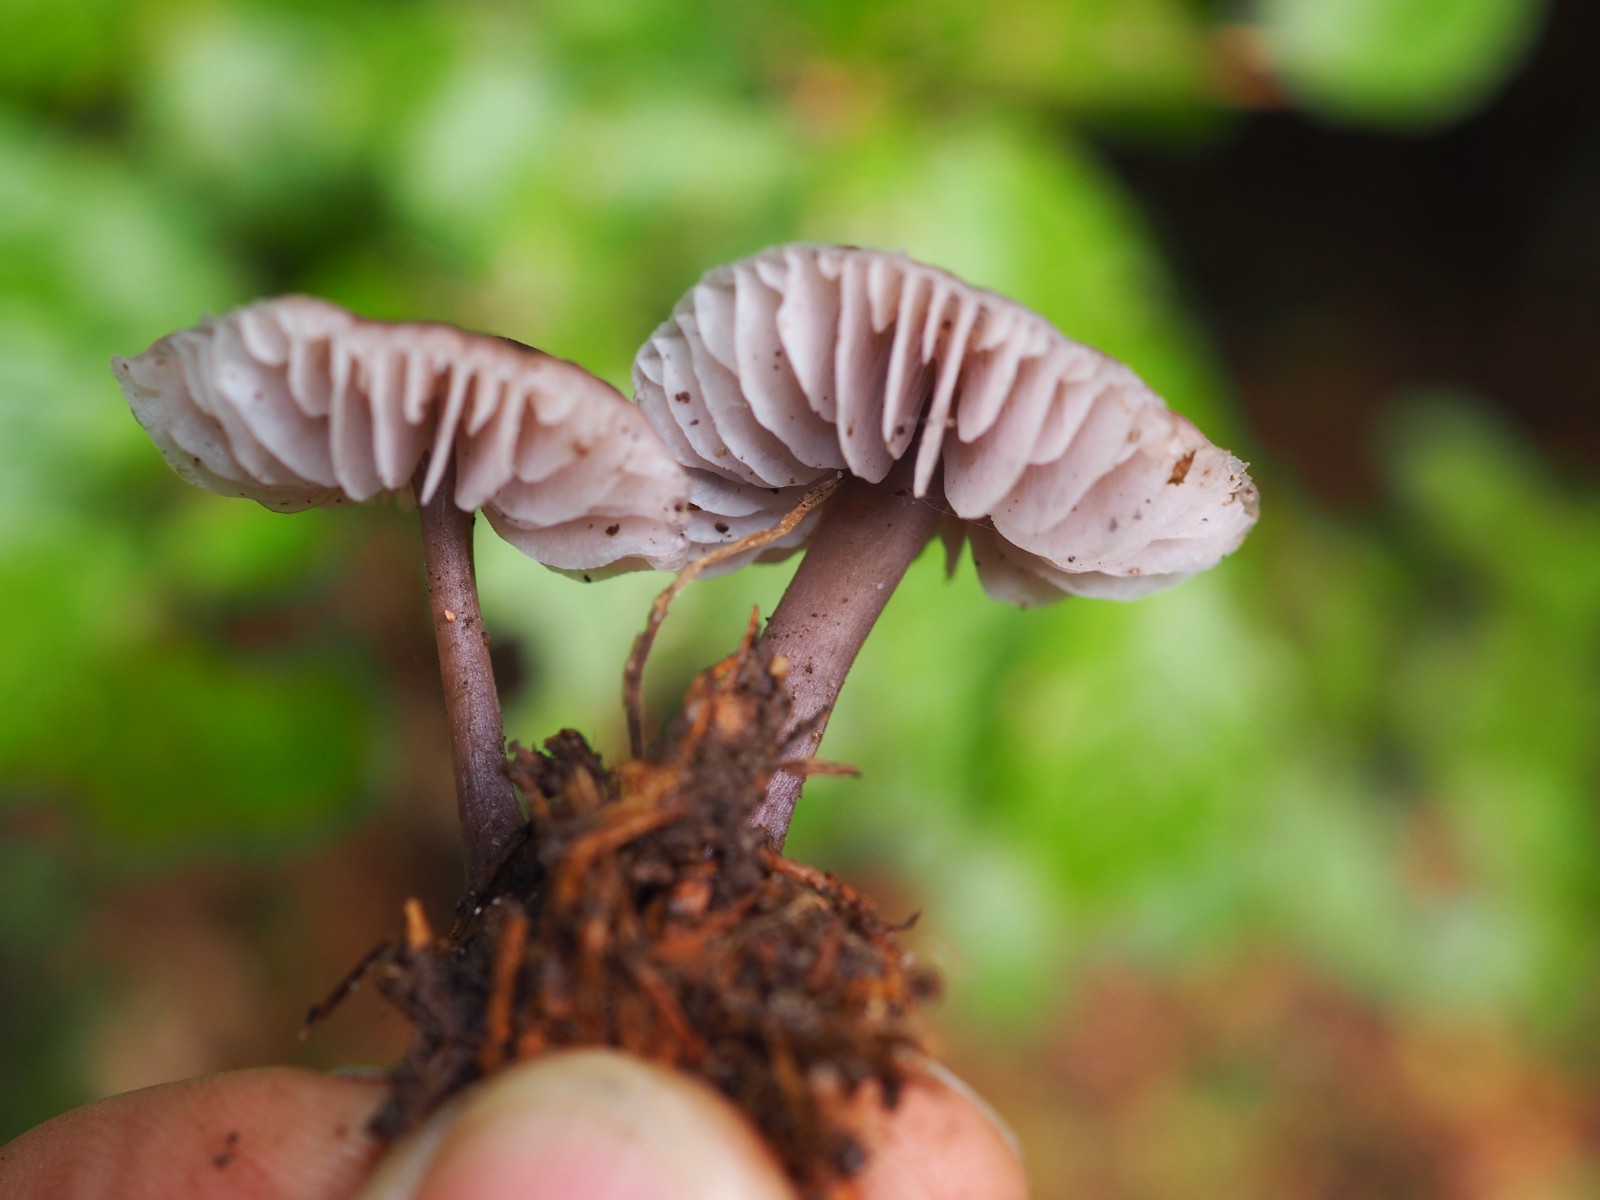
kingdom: Fungi
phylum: Basidiomycota
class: Agaricomycetes
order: Agaricales
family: Mycenaceae
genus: Mycena
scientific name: Mycena
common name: huesvamp
